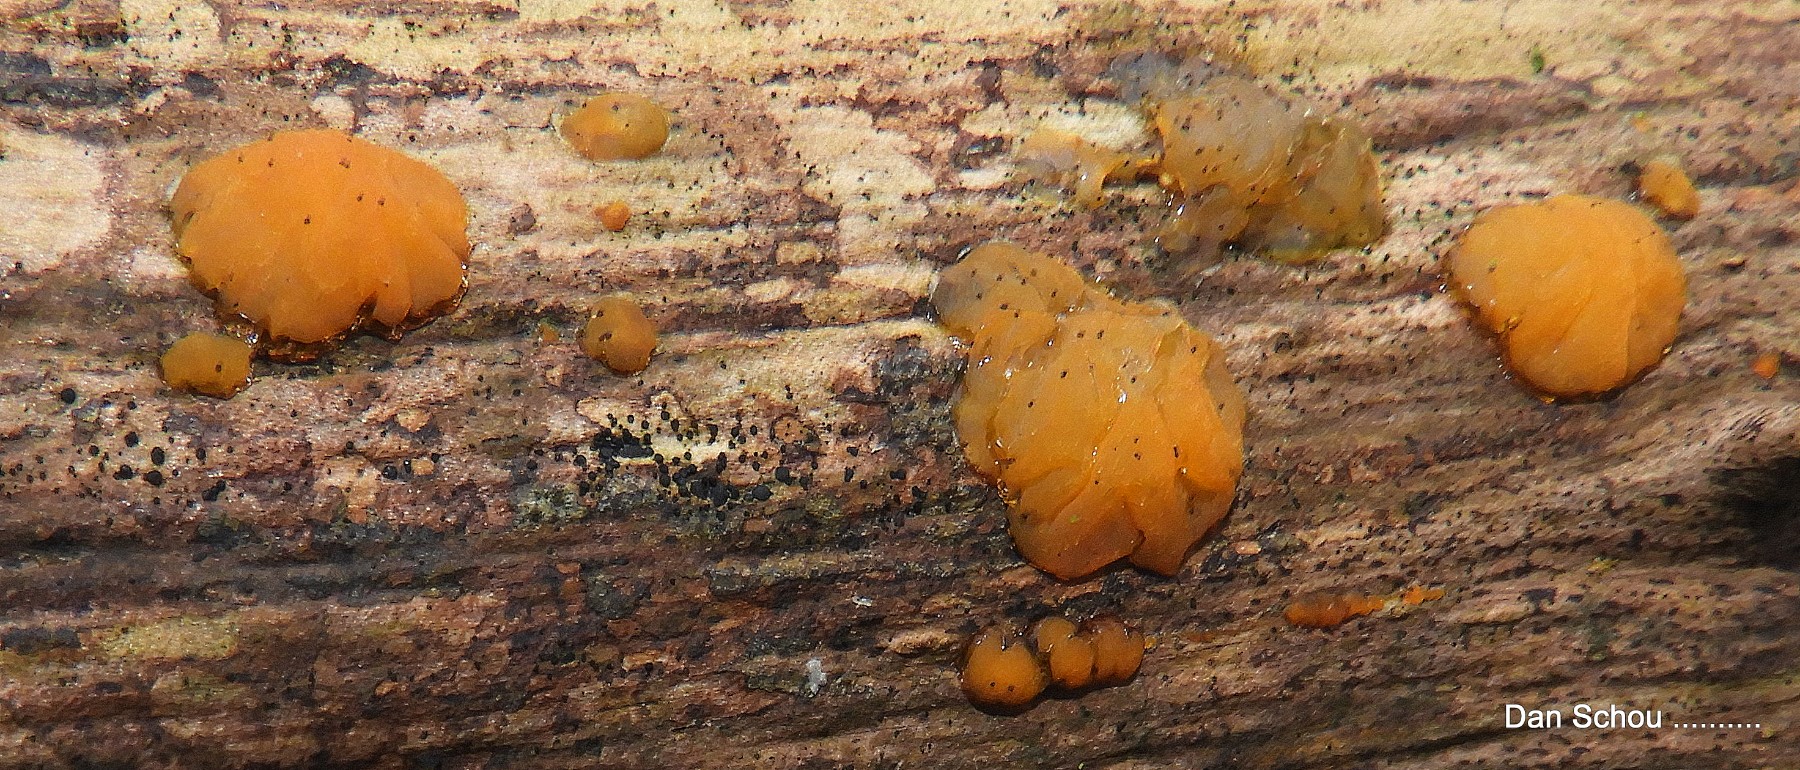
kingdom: Fungi
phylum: Basidiomycota
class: Dacrymycetes
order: Dacrymycetales
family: Dacrymycetaceae
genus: Dacrymyces
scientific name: Dacrymyces
